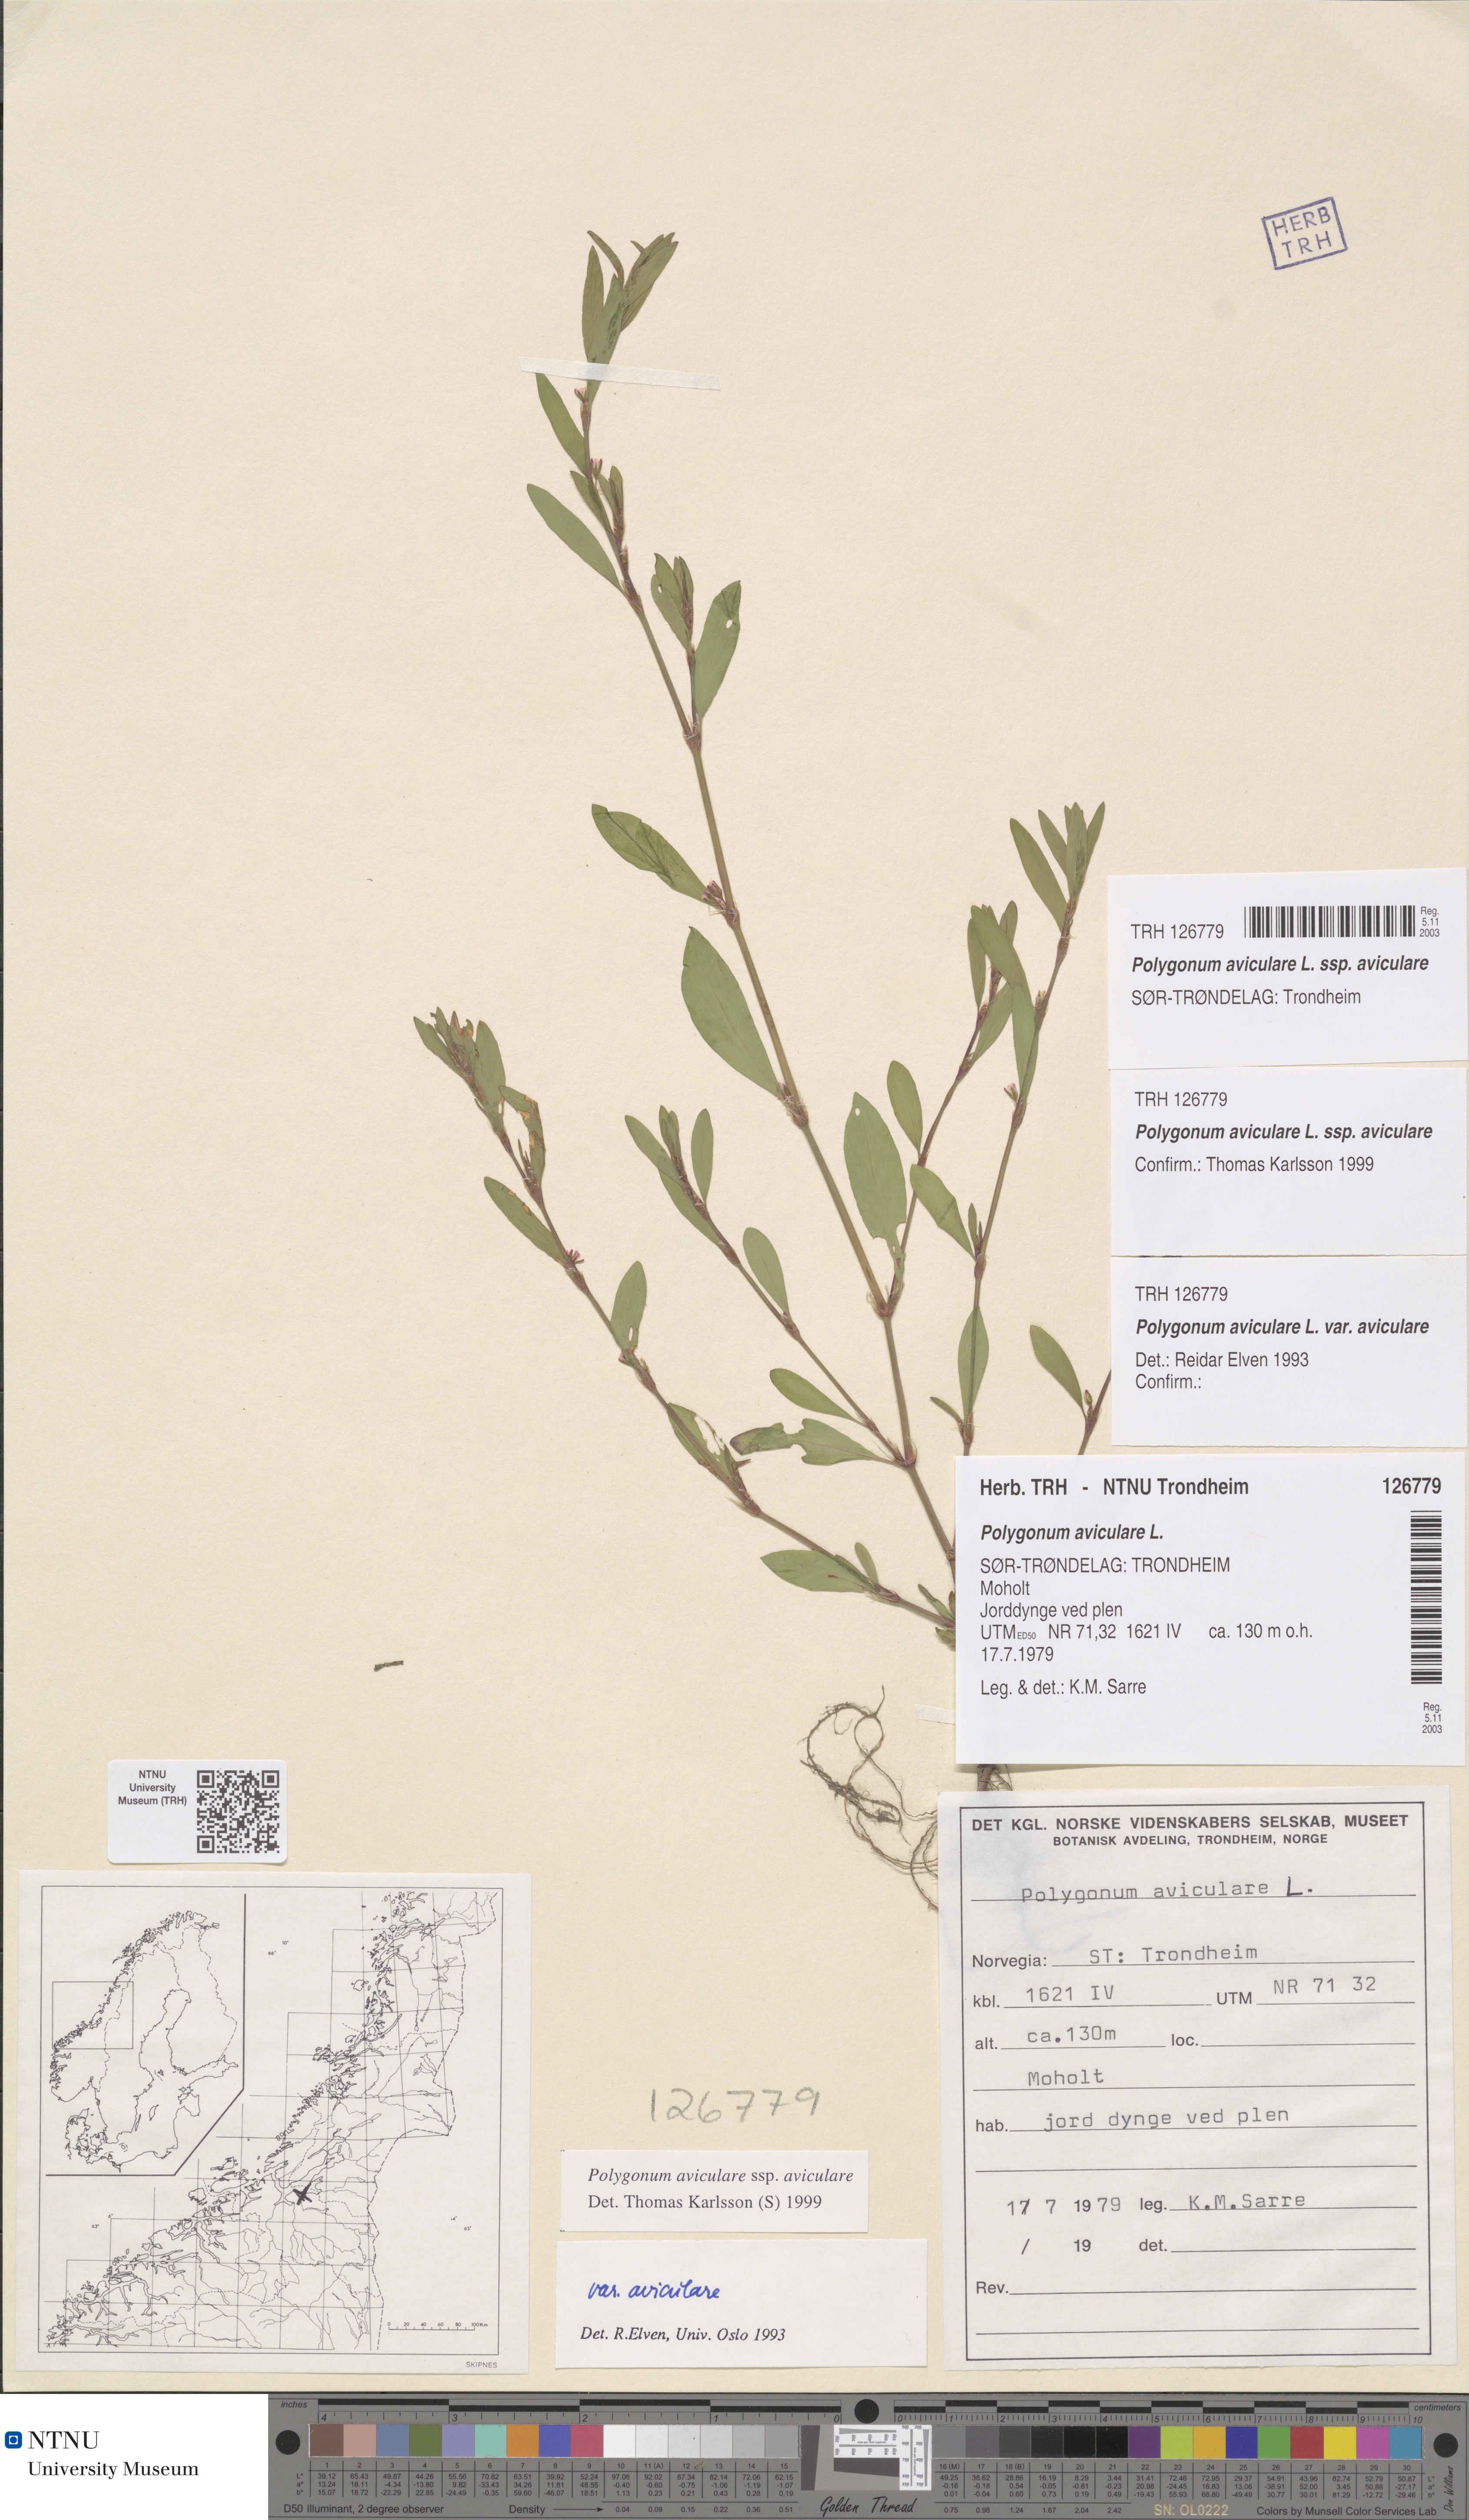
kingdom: Plantae
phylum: Tracheophyta
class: Magnoliopsida
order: Caryophyllales
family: Polygonaceae
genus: Polygonum
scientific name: Polygonum aviculare
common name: Prostrate knotweed
